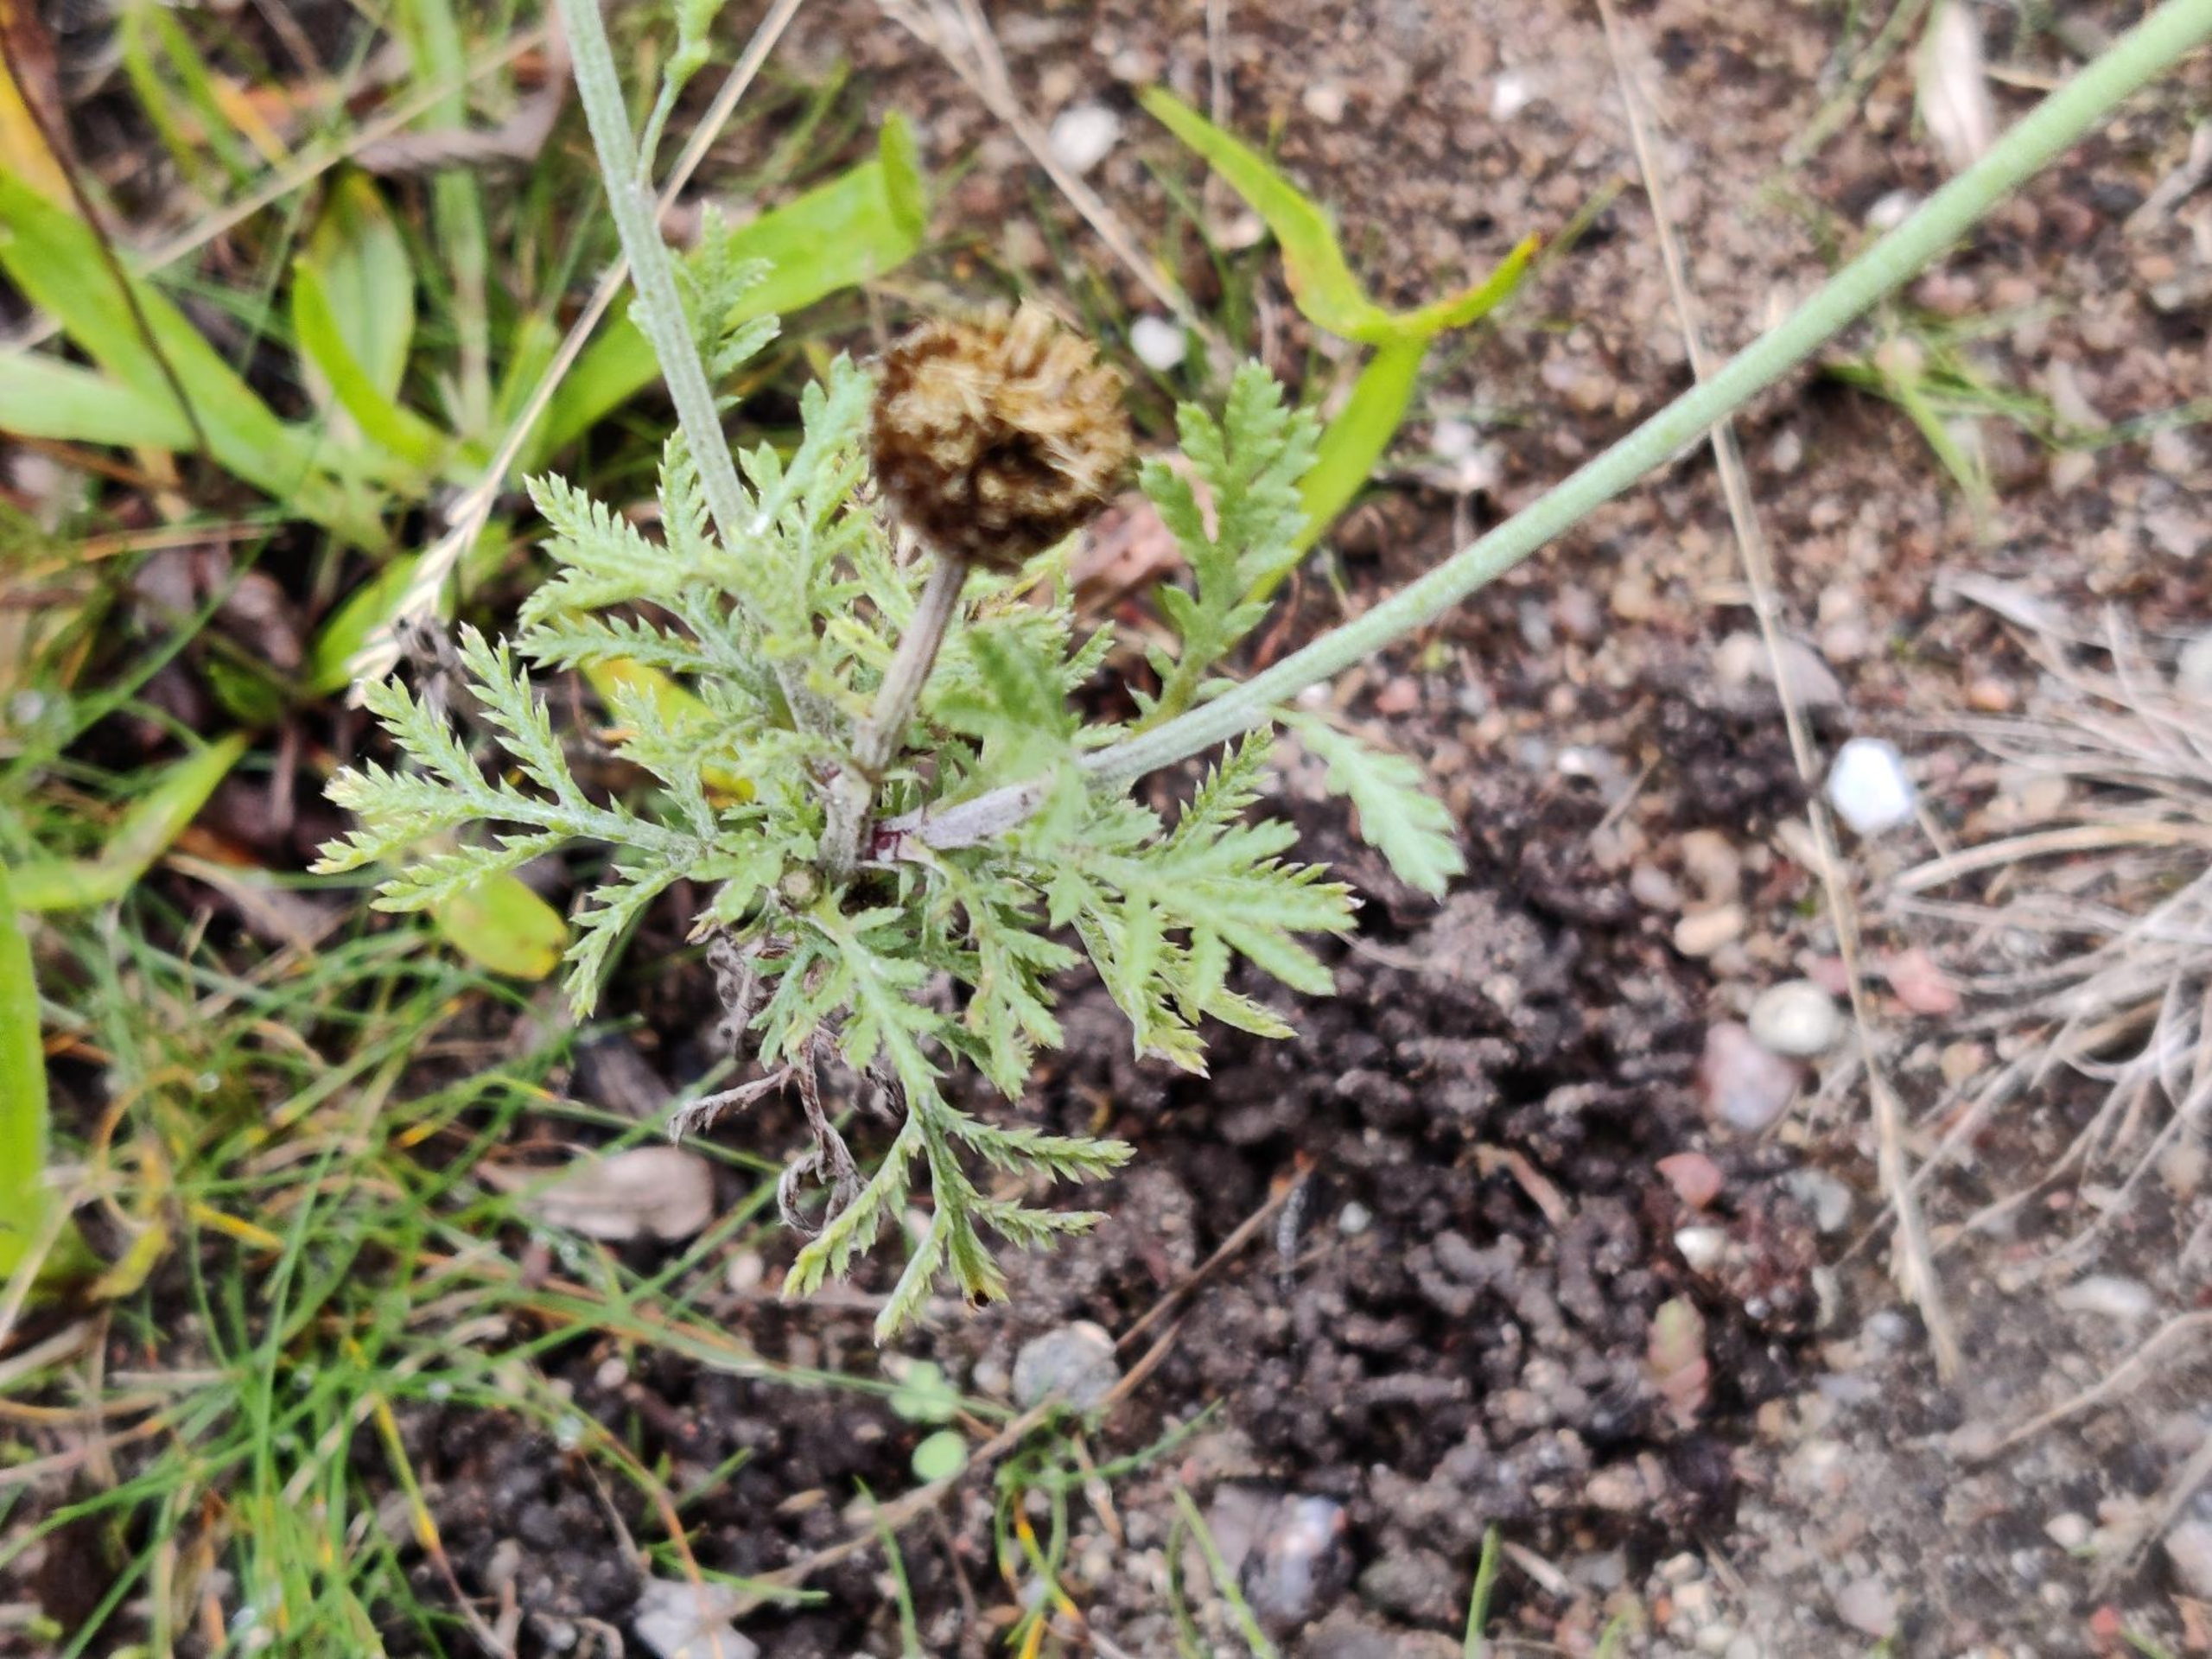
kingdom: Plantae
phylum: Tracheophyta
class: Magnoliopsida
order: Asterales
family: Asteraceae
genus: Cota
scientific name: Cota tinctoria
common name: Farve-gåseurt
